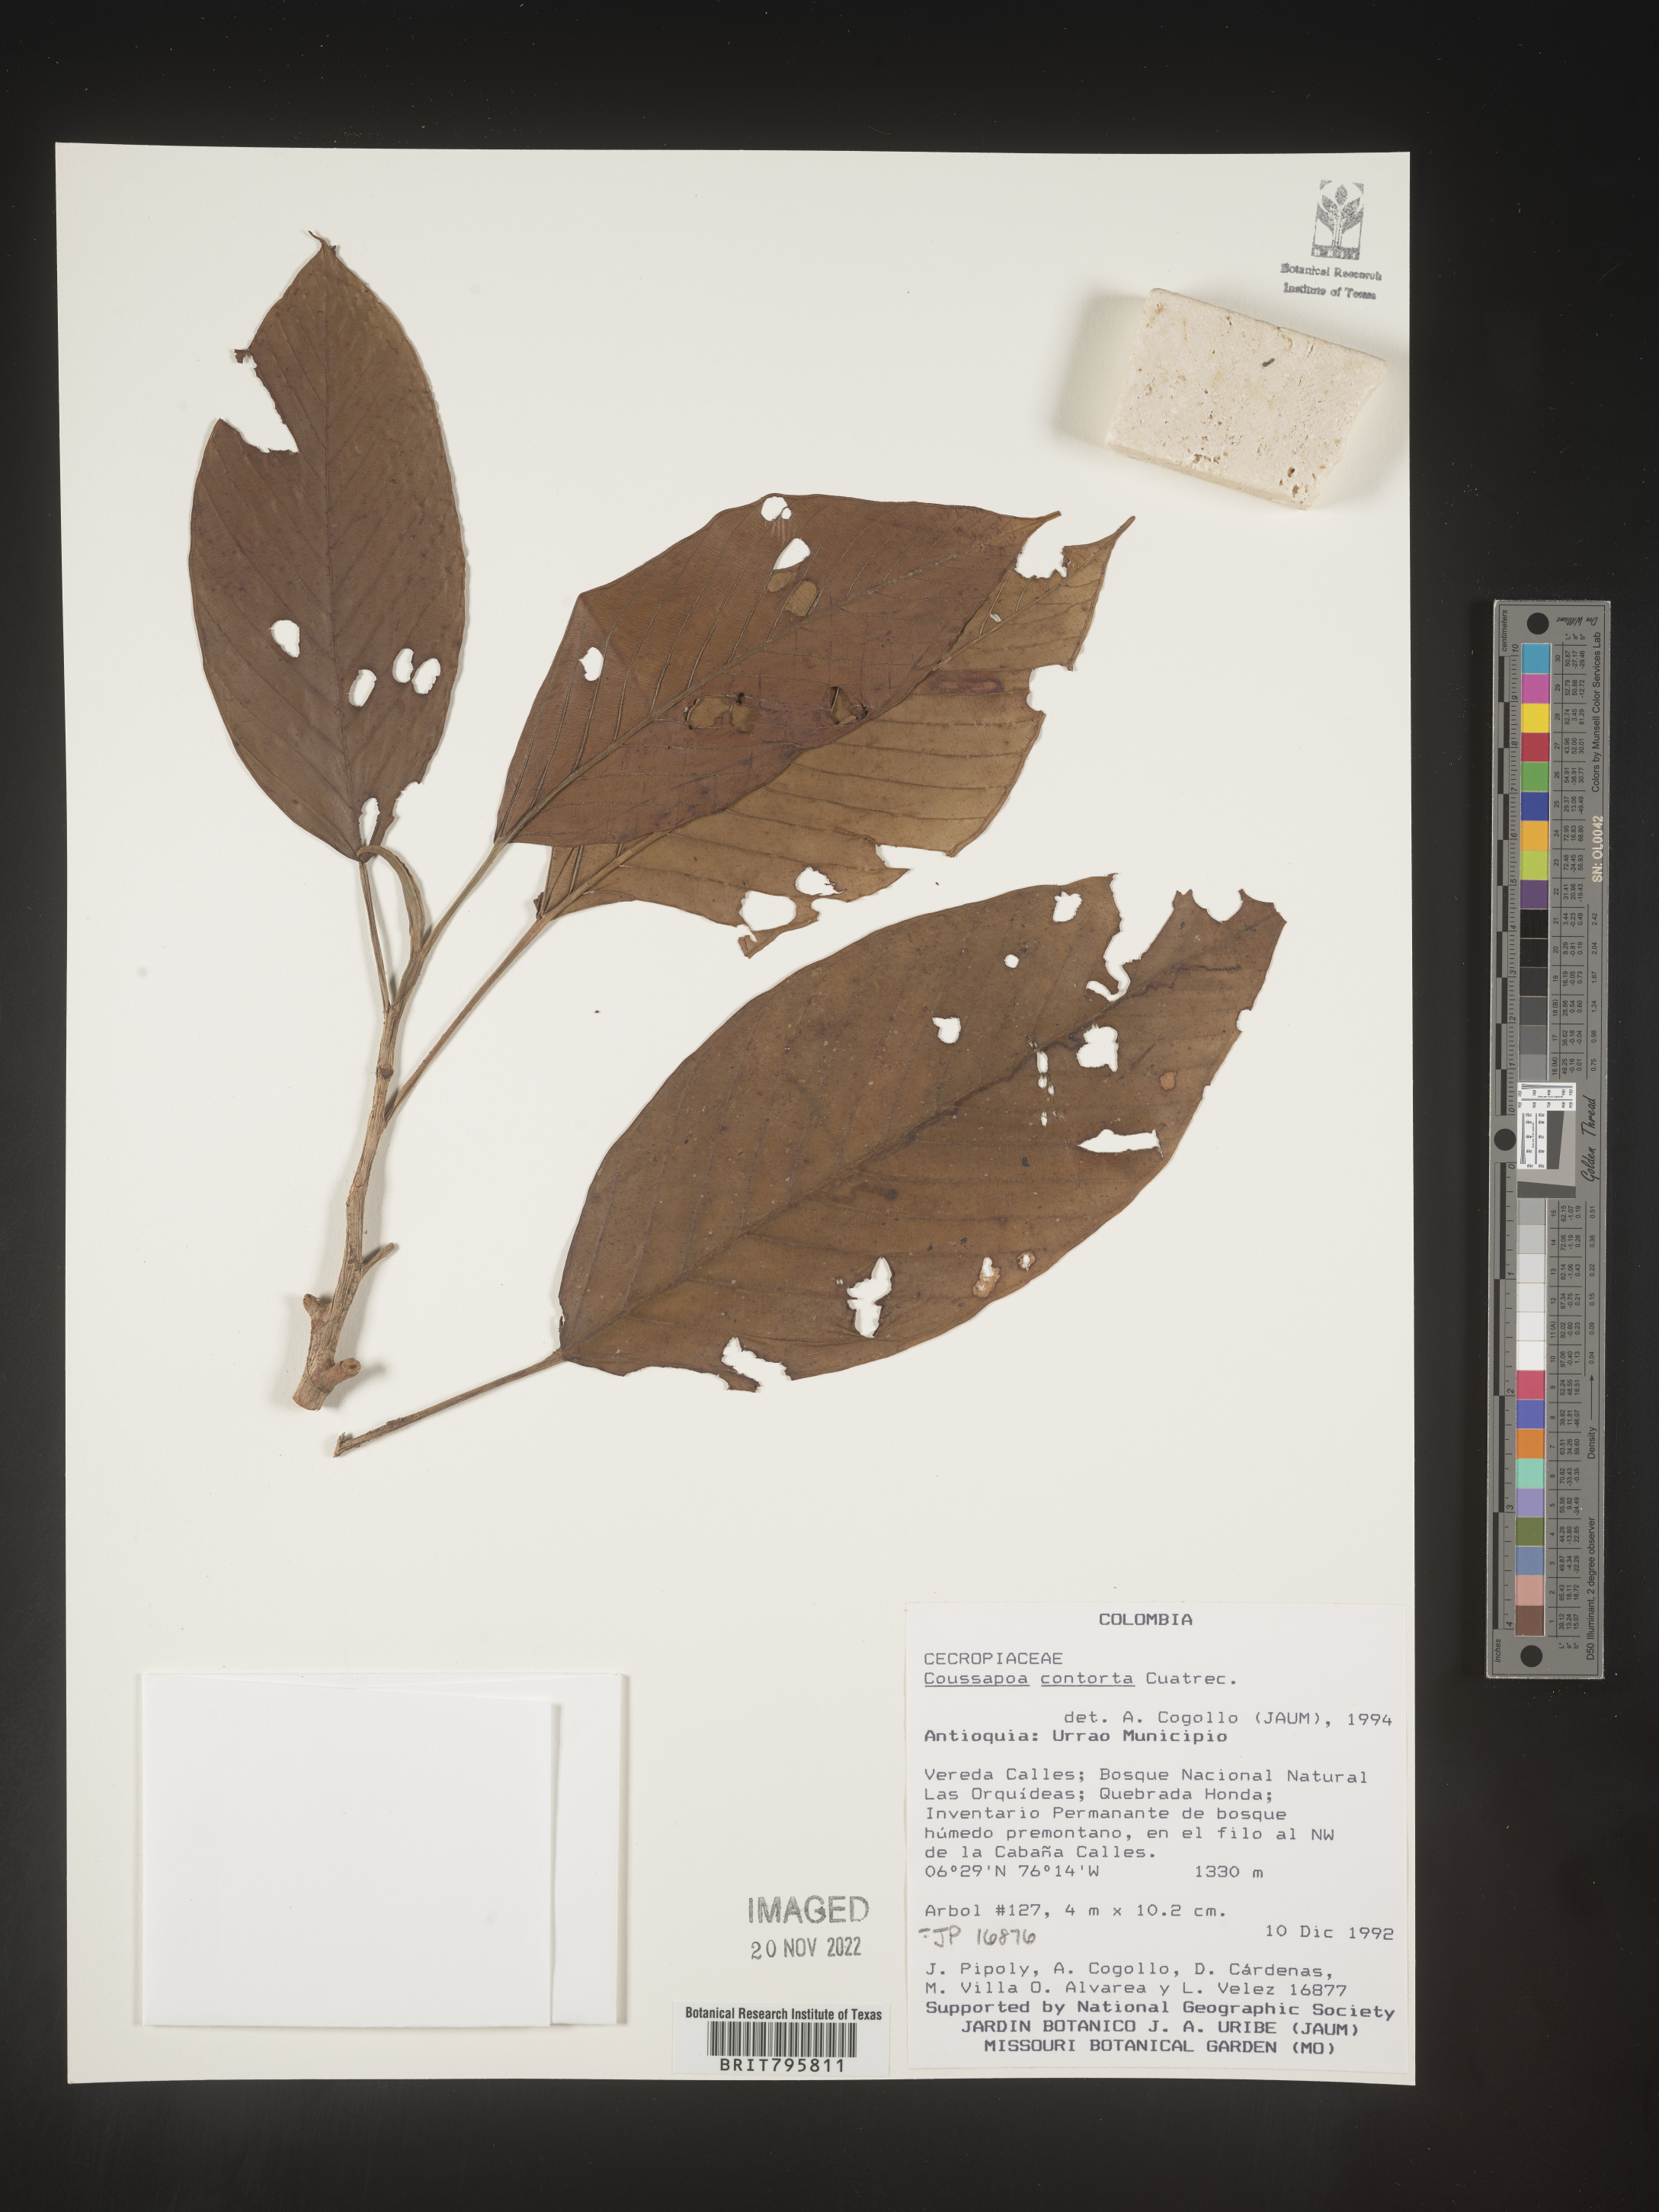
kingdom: Plantae
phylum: Tracheophyta
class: Magnoliopsida
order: Rosales
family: Urticaceae
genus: Coussapoa
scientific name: Coussapoa
